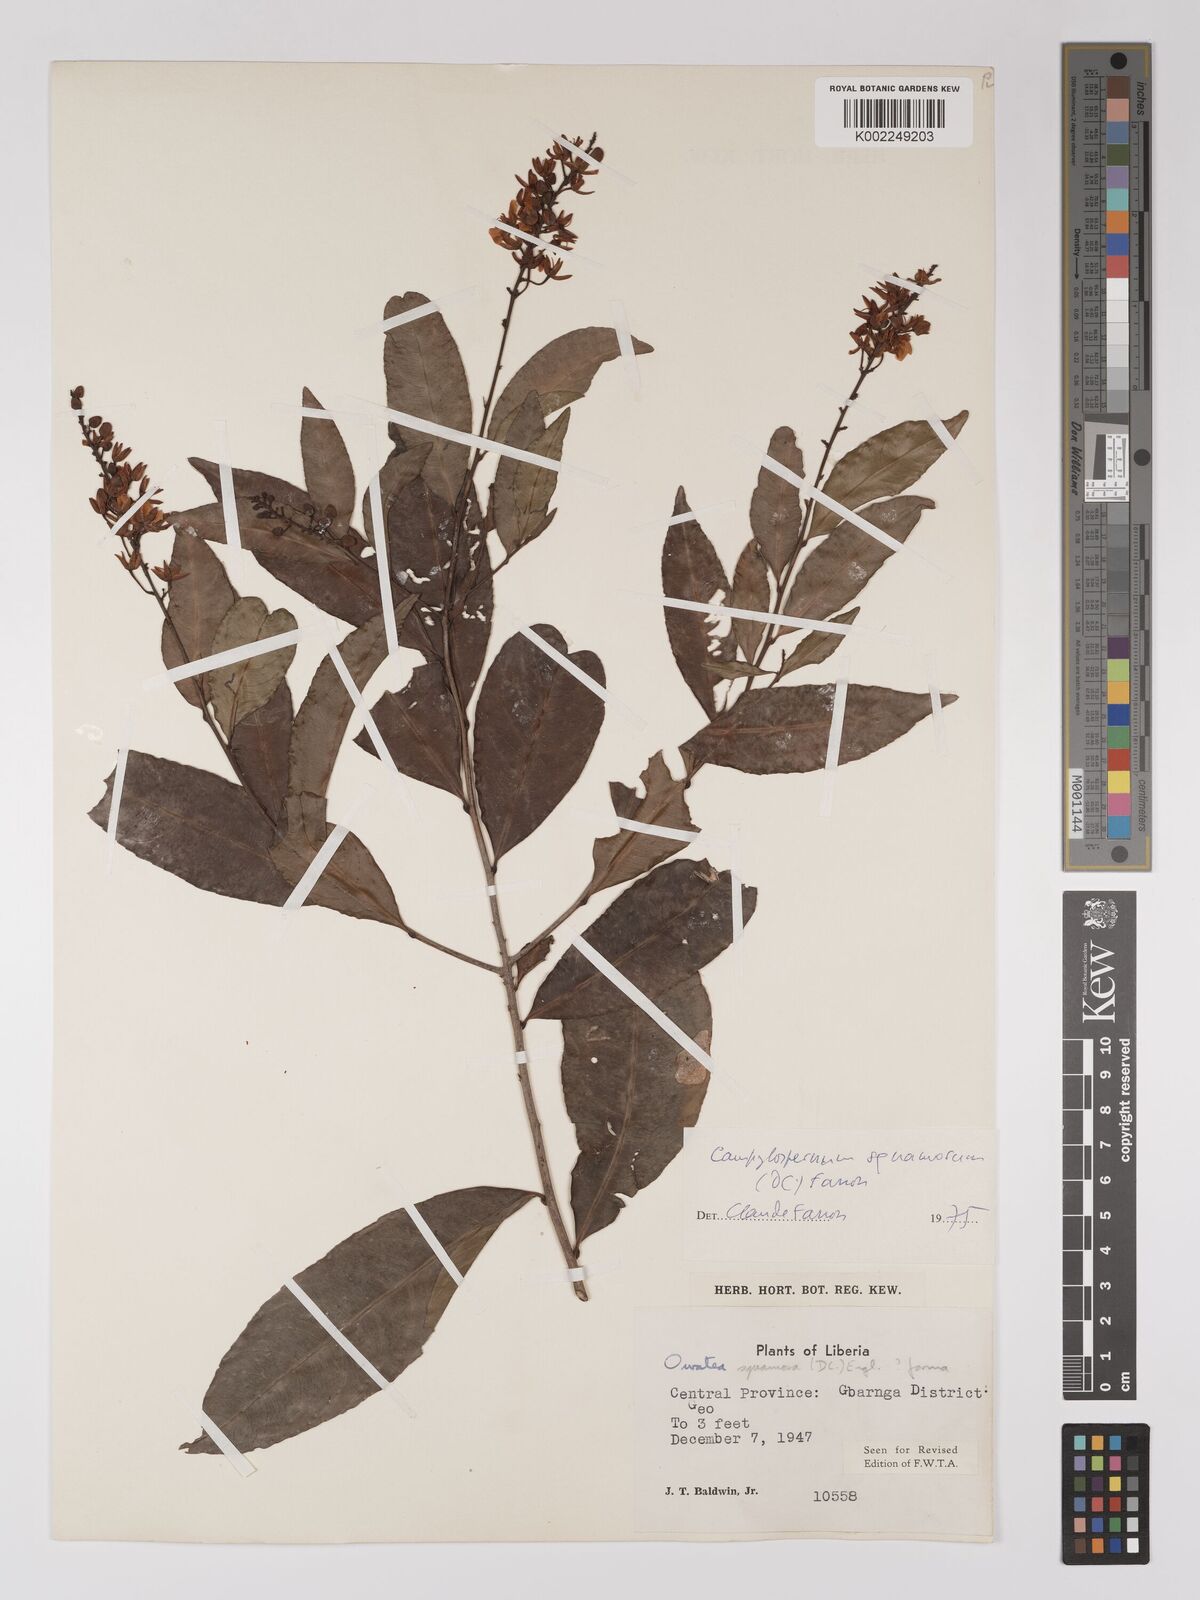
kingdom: Plantae
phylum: Tracheophyta
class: Magnoliopsida
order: Malpighiales
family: Ochnaceae
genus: Campylospermum
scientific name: Campylospermum squamosum
